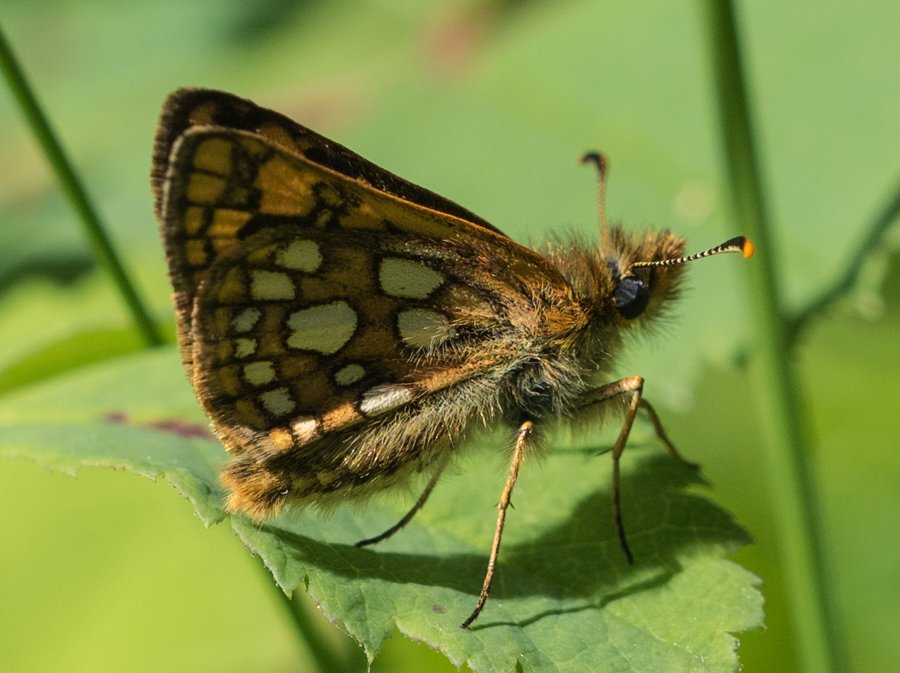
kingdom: Animalia
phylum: Arthropoda
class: Insecta
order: Lepidoptera
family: Hesperiidae
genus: Carterocephalus
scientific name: Carterocephalus palaemon
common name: Chequered Skipper
